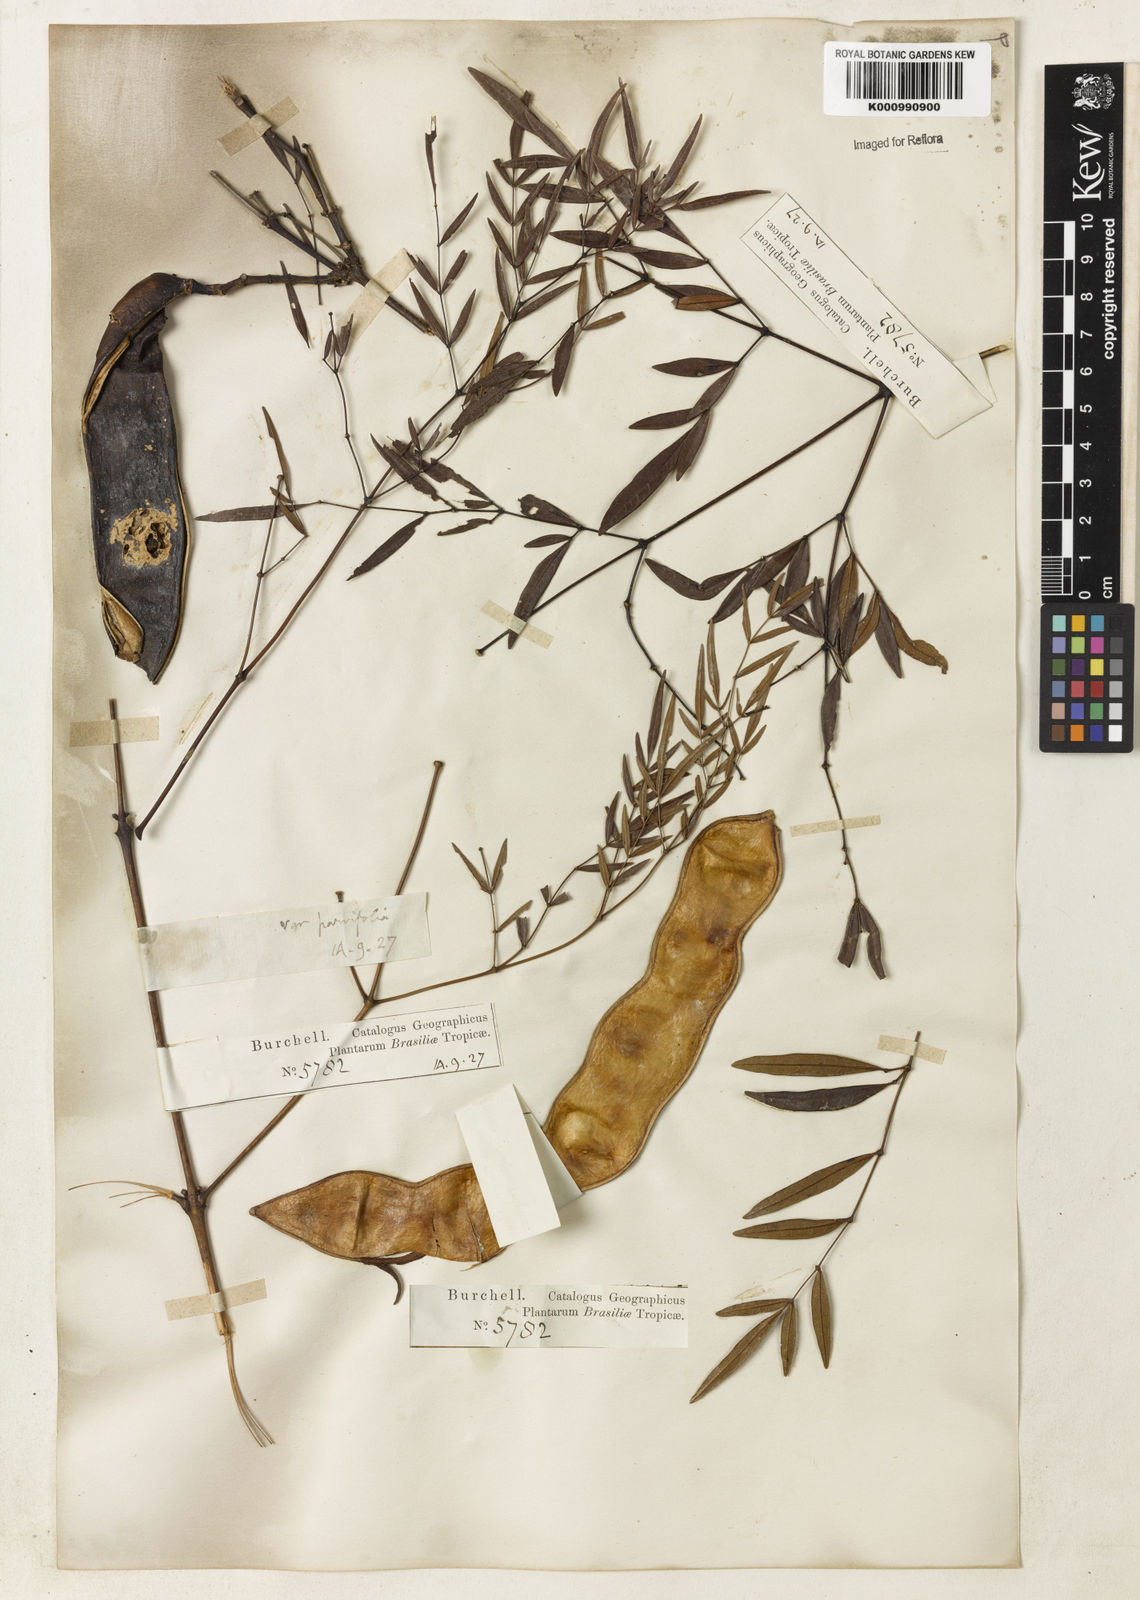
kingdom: Plantae
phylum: Tracheophyta
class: Magnoliopsida
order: Lamiales
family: Bignoniaceae
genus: Adenocalymma
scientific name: Adenocalymma nodosum
